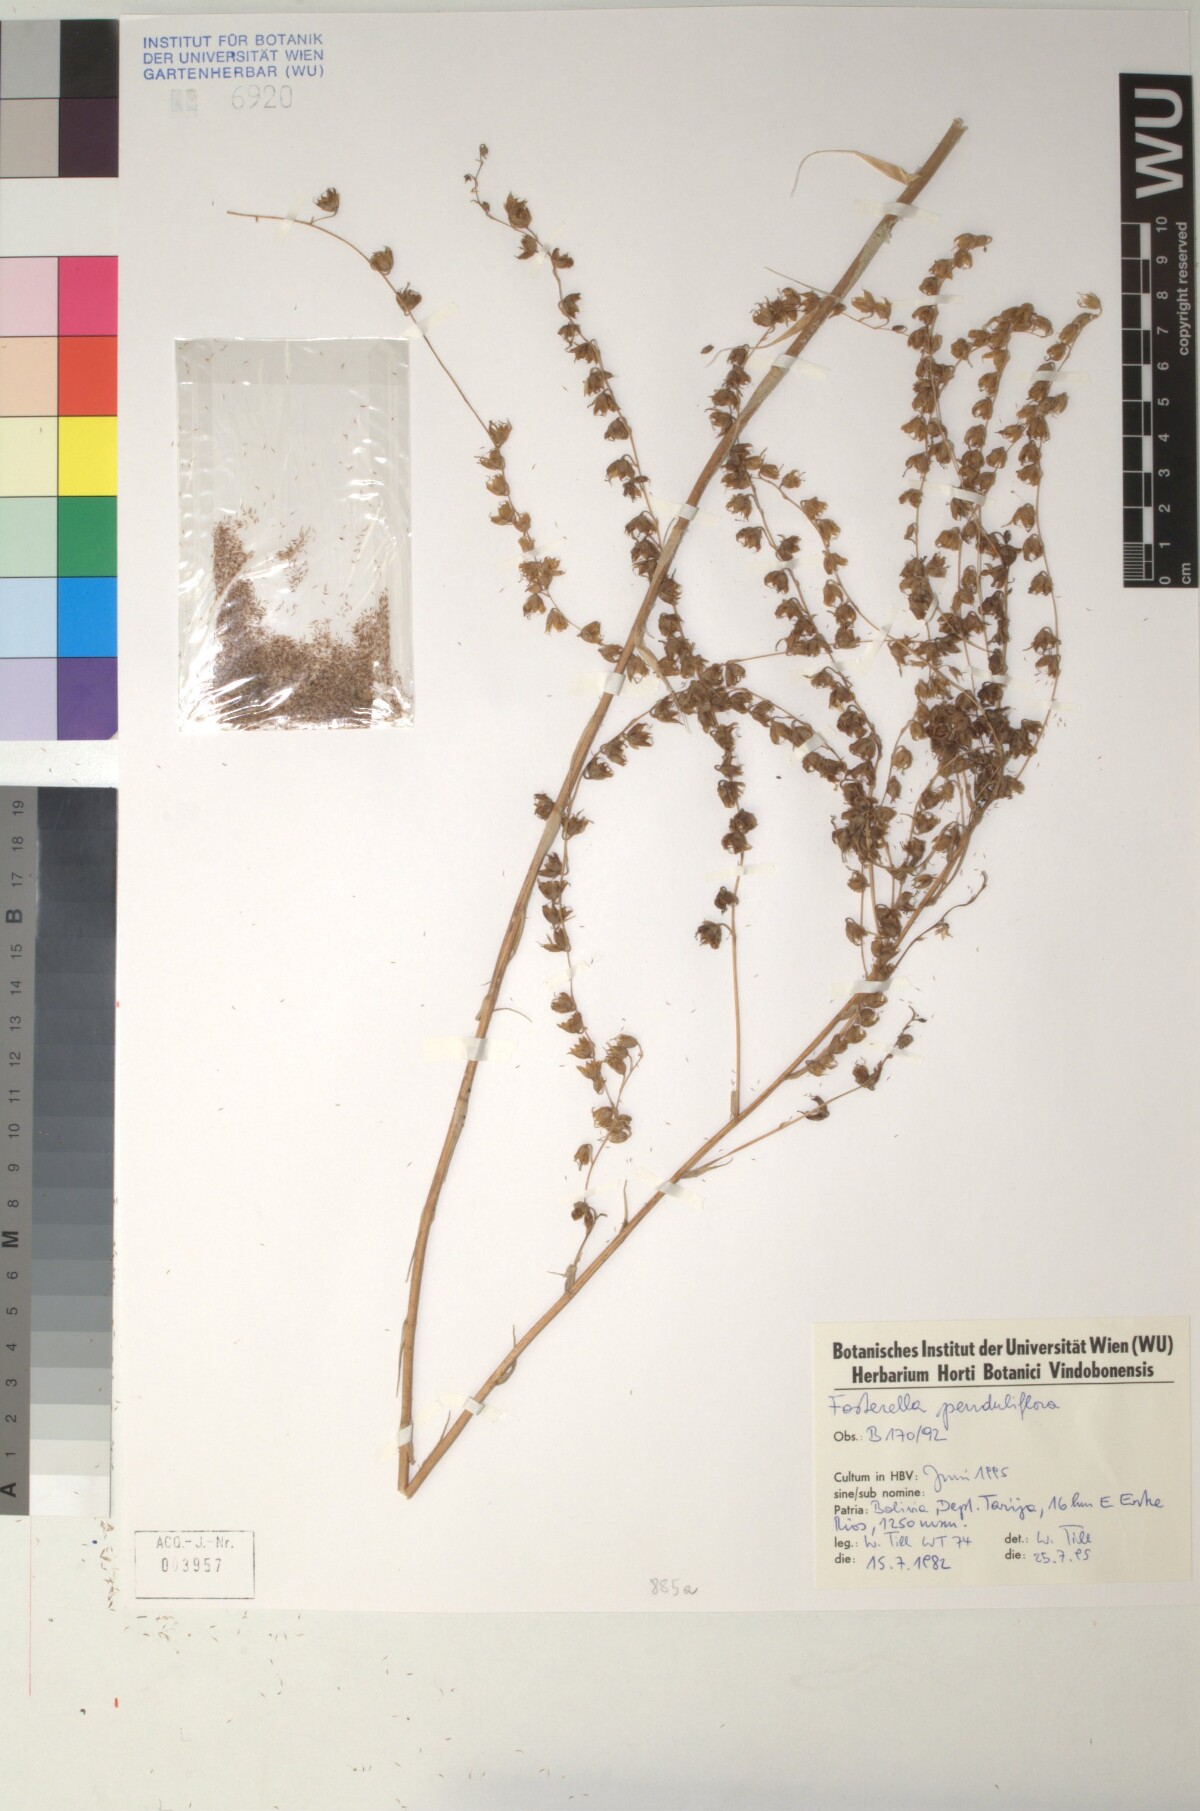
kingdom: Plantae
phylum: Tracheophyta
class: Liliopsida
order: Poales
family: Bromeliaceae
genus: Fosterella
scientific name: Fosterella penduliflora
